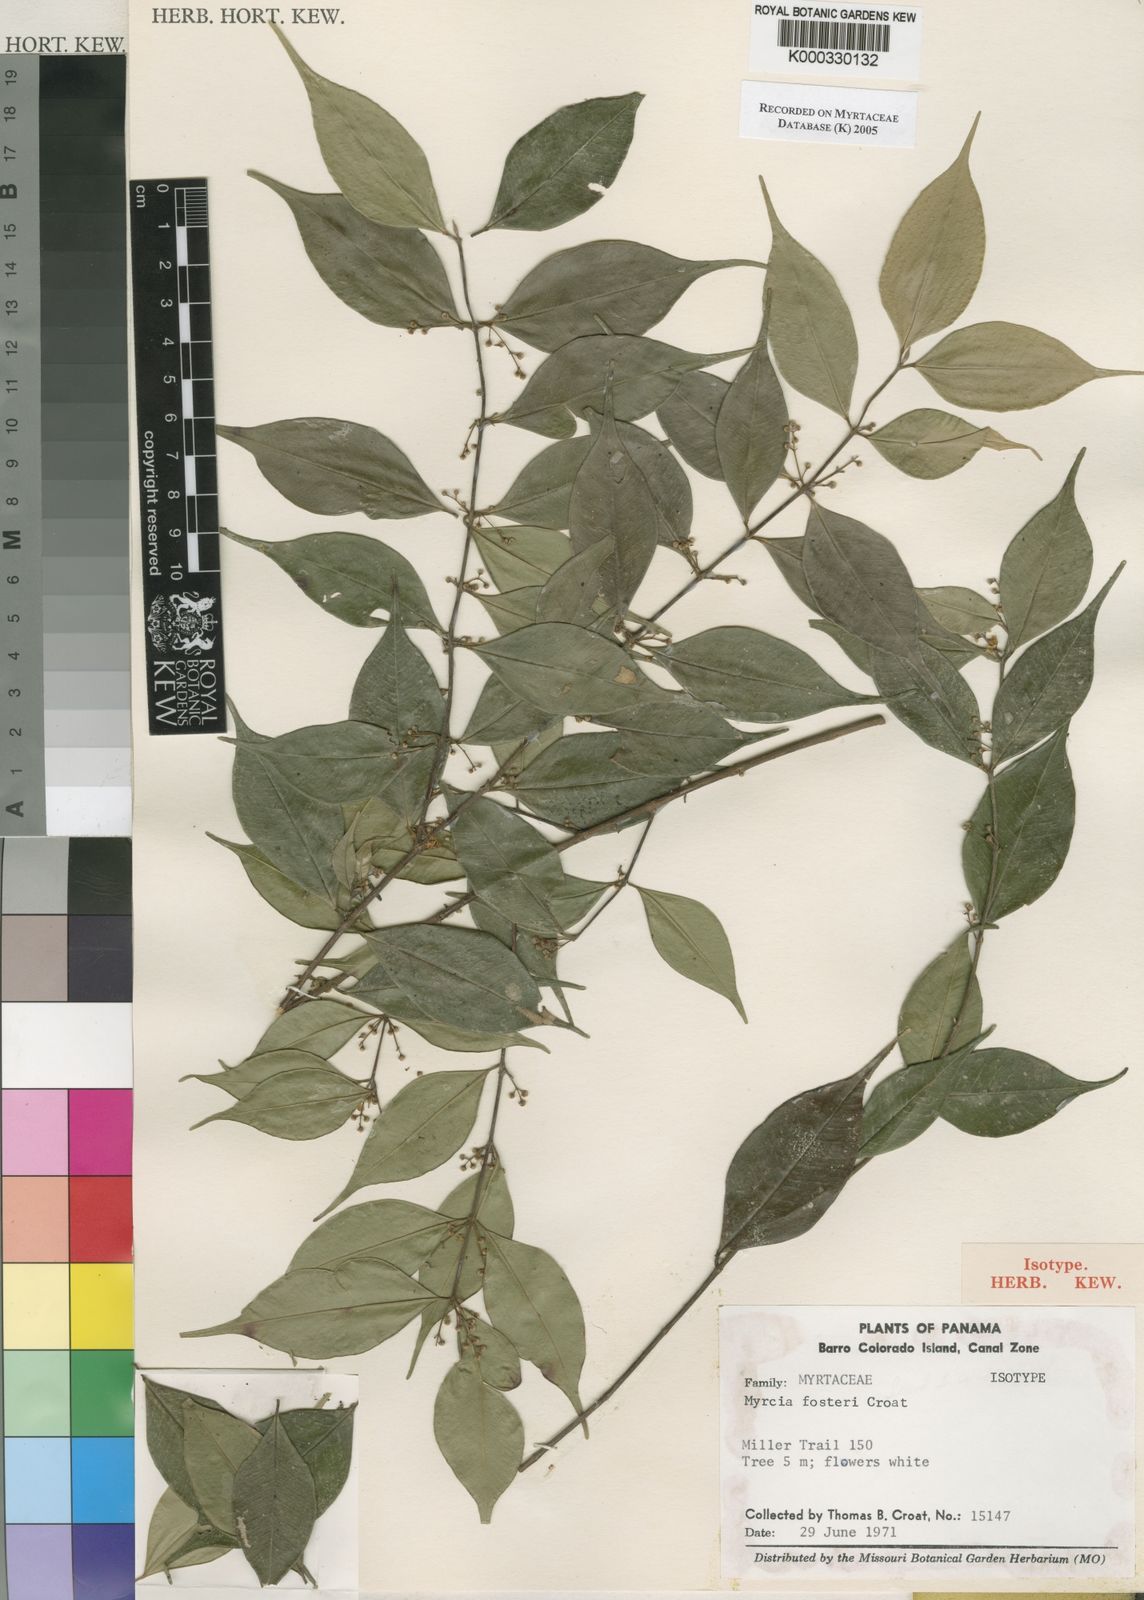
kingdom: Plantae
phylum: Tracheophyta
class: Magnoliopsida
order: Myrtales
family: Myrtaceae
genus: Myrcia
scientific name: Myrcia fosteri
